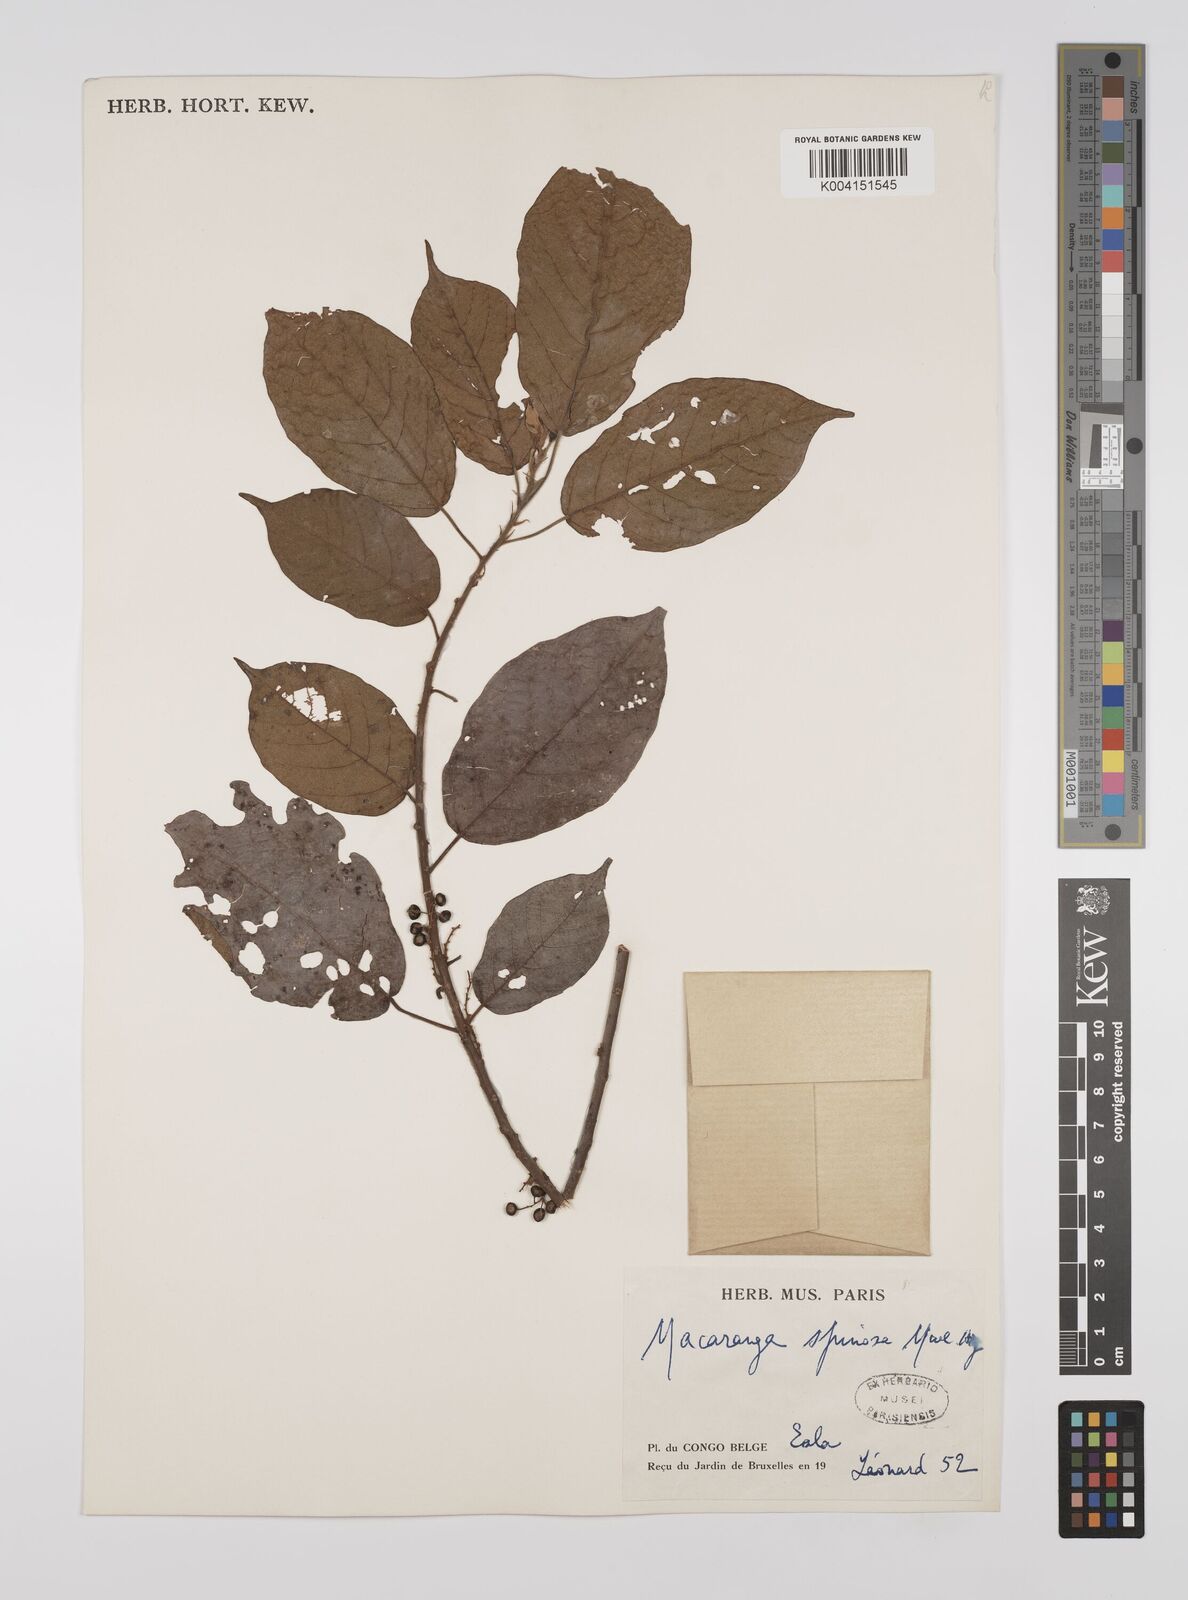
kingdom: Plantae
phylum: Tracheophyta
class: Magnoliopsida
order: Malpighiales
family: Euphorbiaceae
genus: Macaranga
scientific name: Macaranga spinosa
